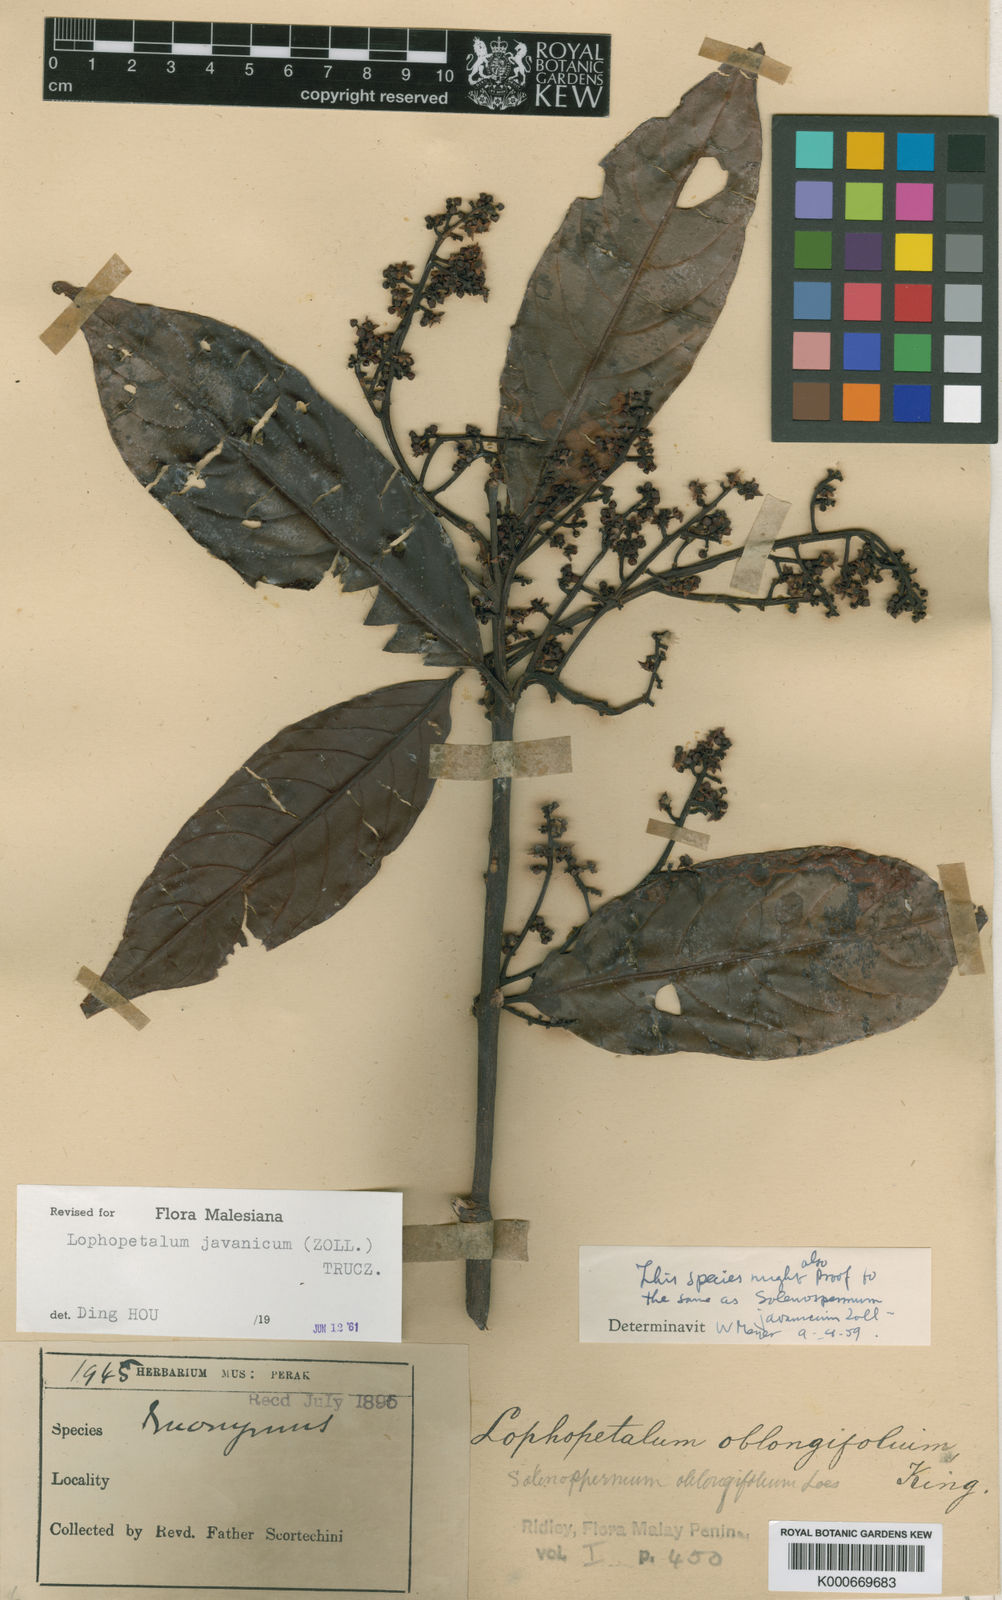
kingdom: Plantae
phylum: Tracheophyta
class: Magnoliopsida
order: Celastrales
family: Celastraceae
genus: Lophopetalum
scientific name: Lophopetalum
